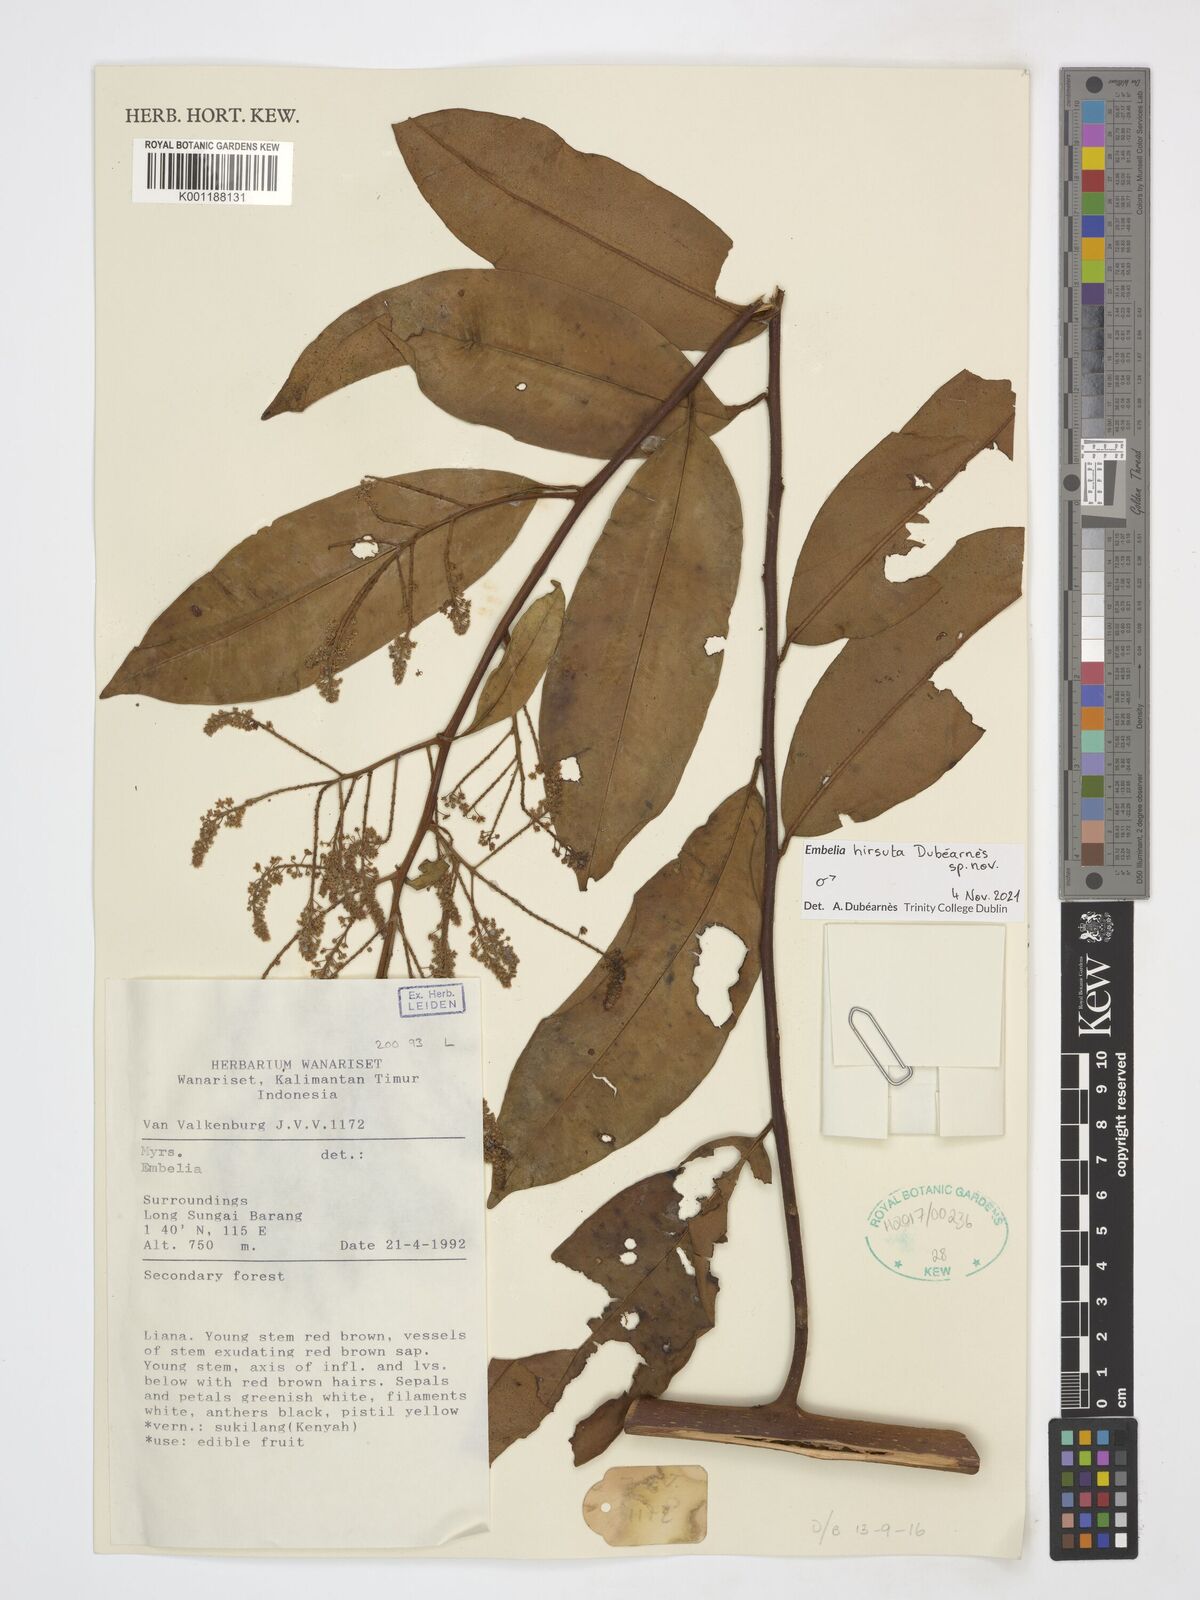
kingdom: Plantae
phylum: Tracheophyta
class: Magnoliopsida
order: Ericales
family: Primulaceae
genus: Embelia
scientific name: Embelia
